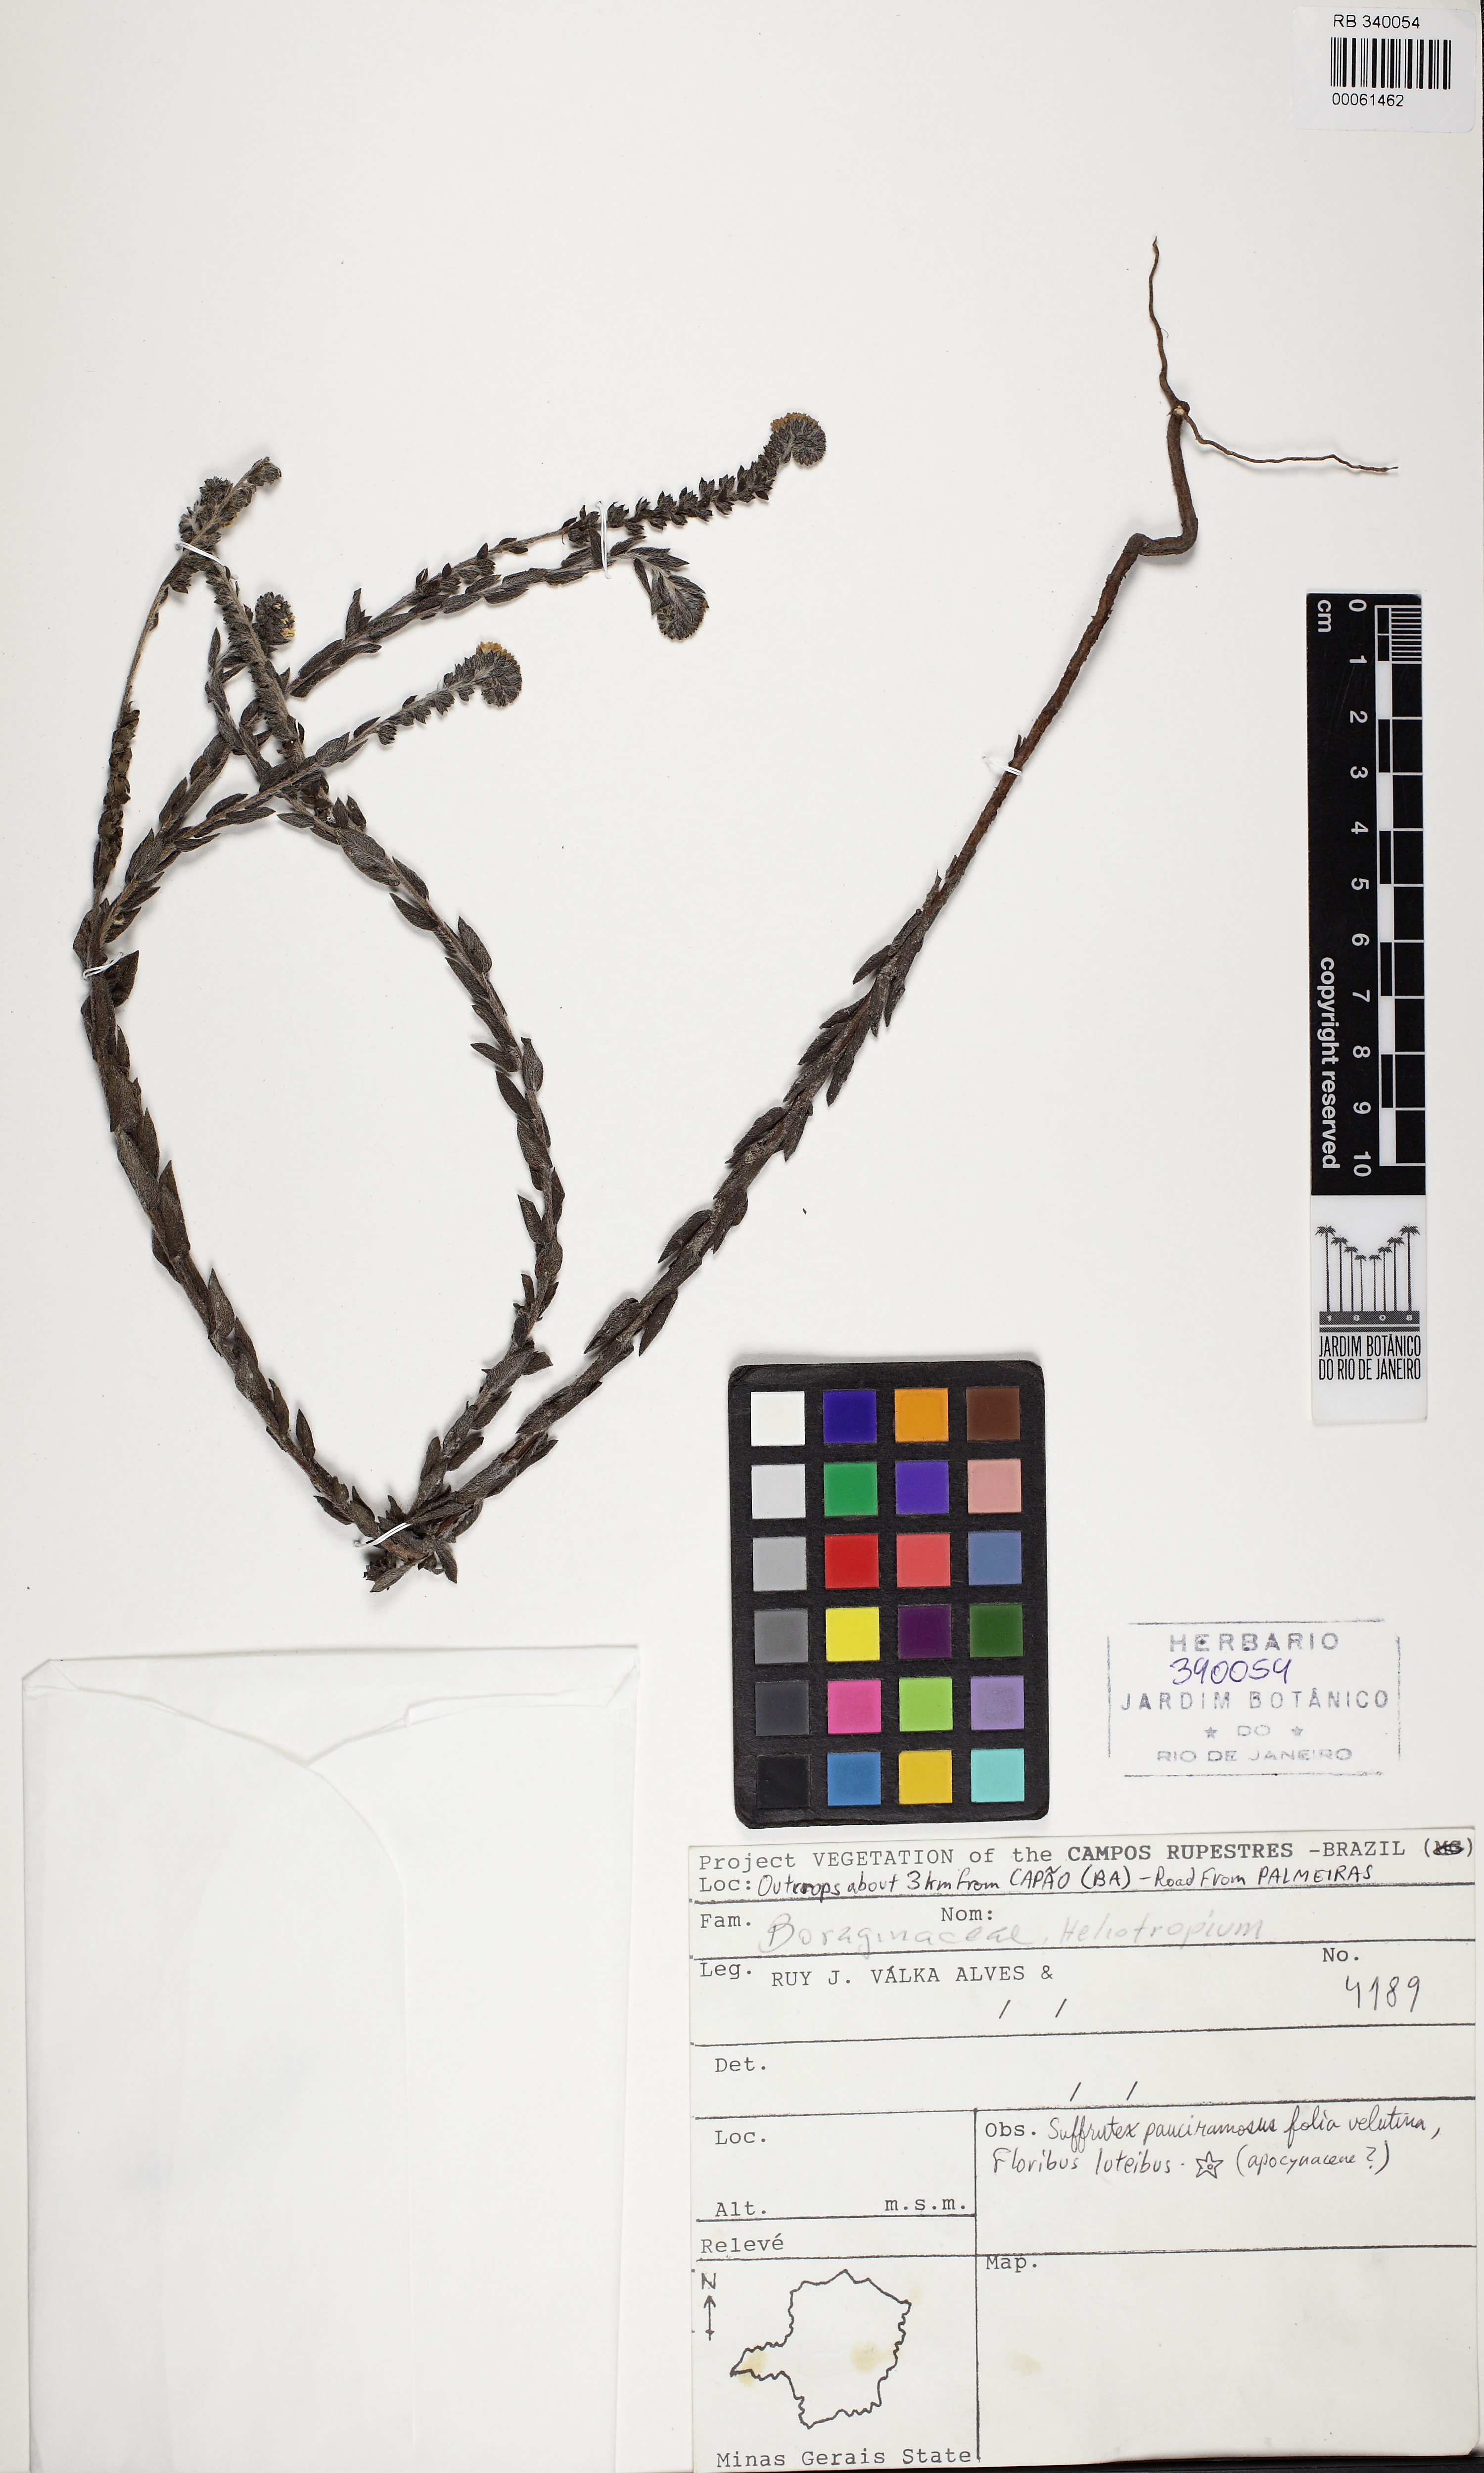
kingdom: Plantae
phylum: Tracheophyta
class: Magnoliopsida
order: Boraginales
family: Heliotropiaceae
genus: Euploca
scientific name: Euploca salicoides
